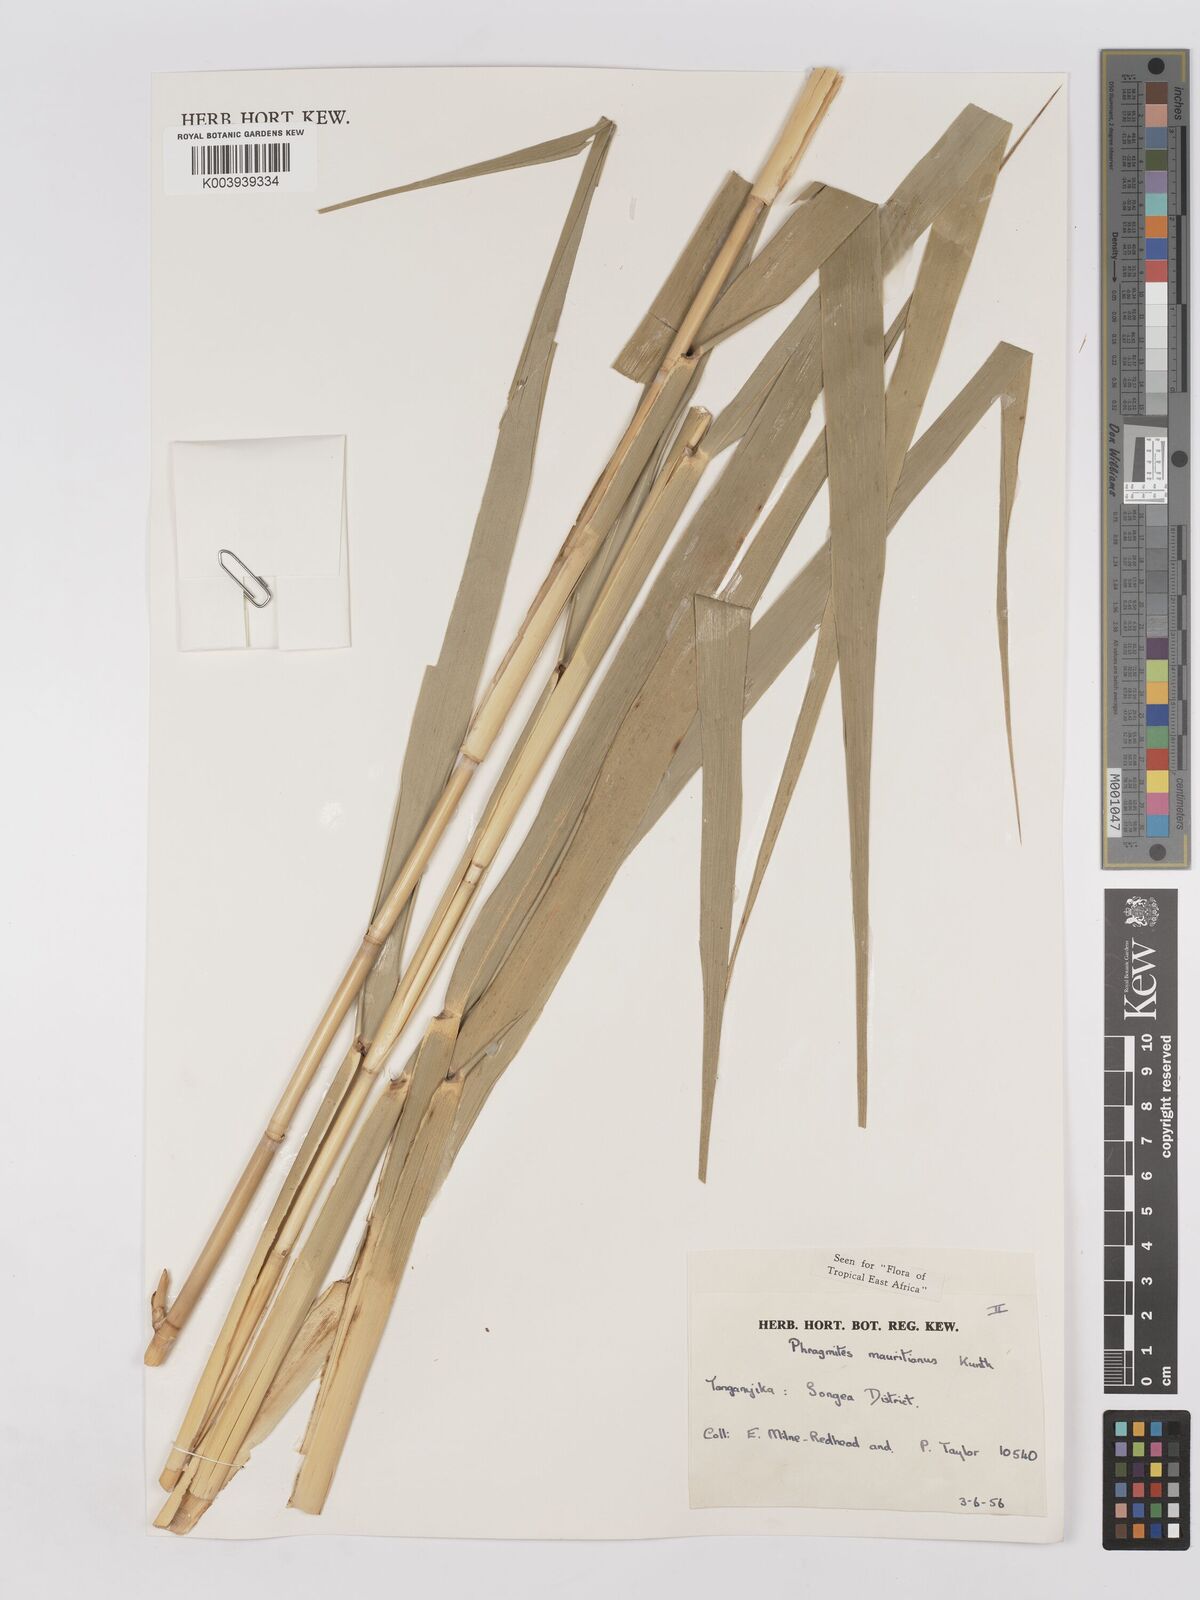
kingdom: Plantae
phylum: Tracheophyta
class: Liliopsida
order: Poales
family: Poaceae
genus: Phragmites
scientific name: Phragmites mauritianus
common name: Reed grass
